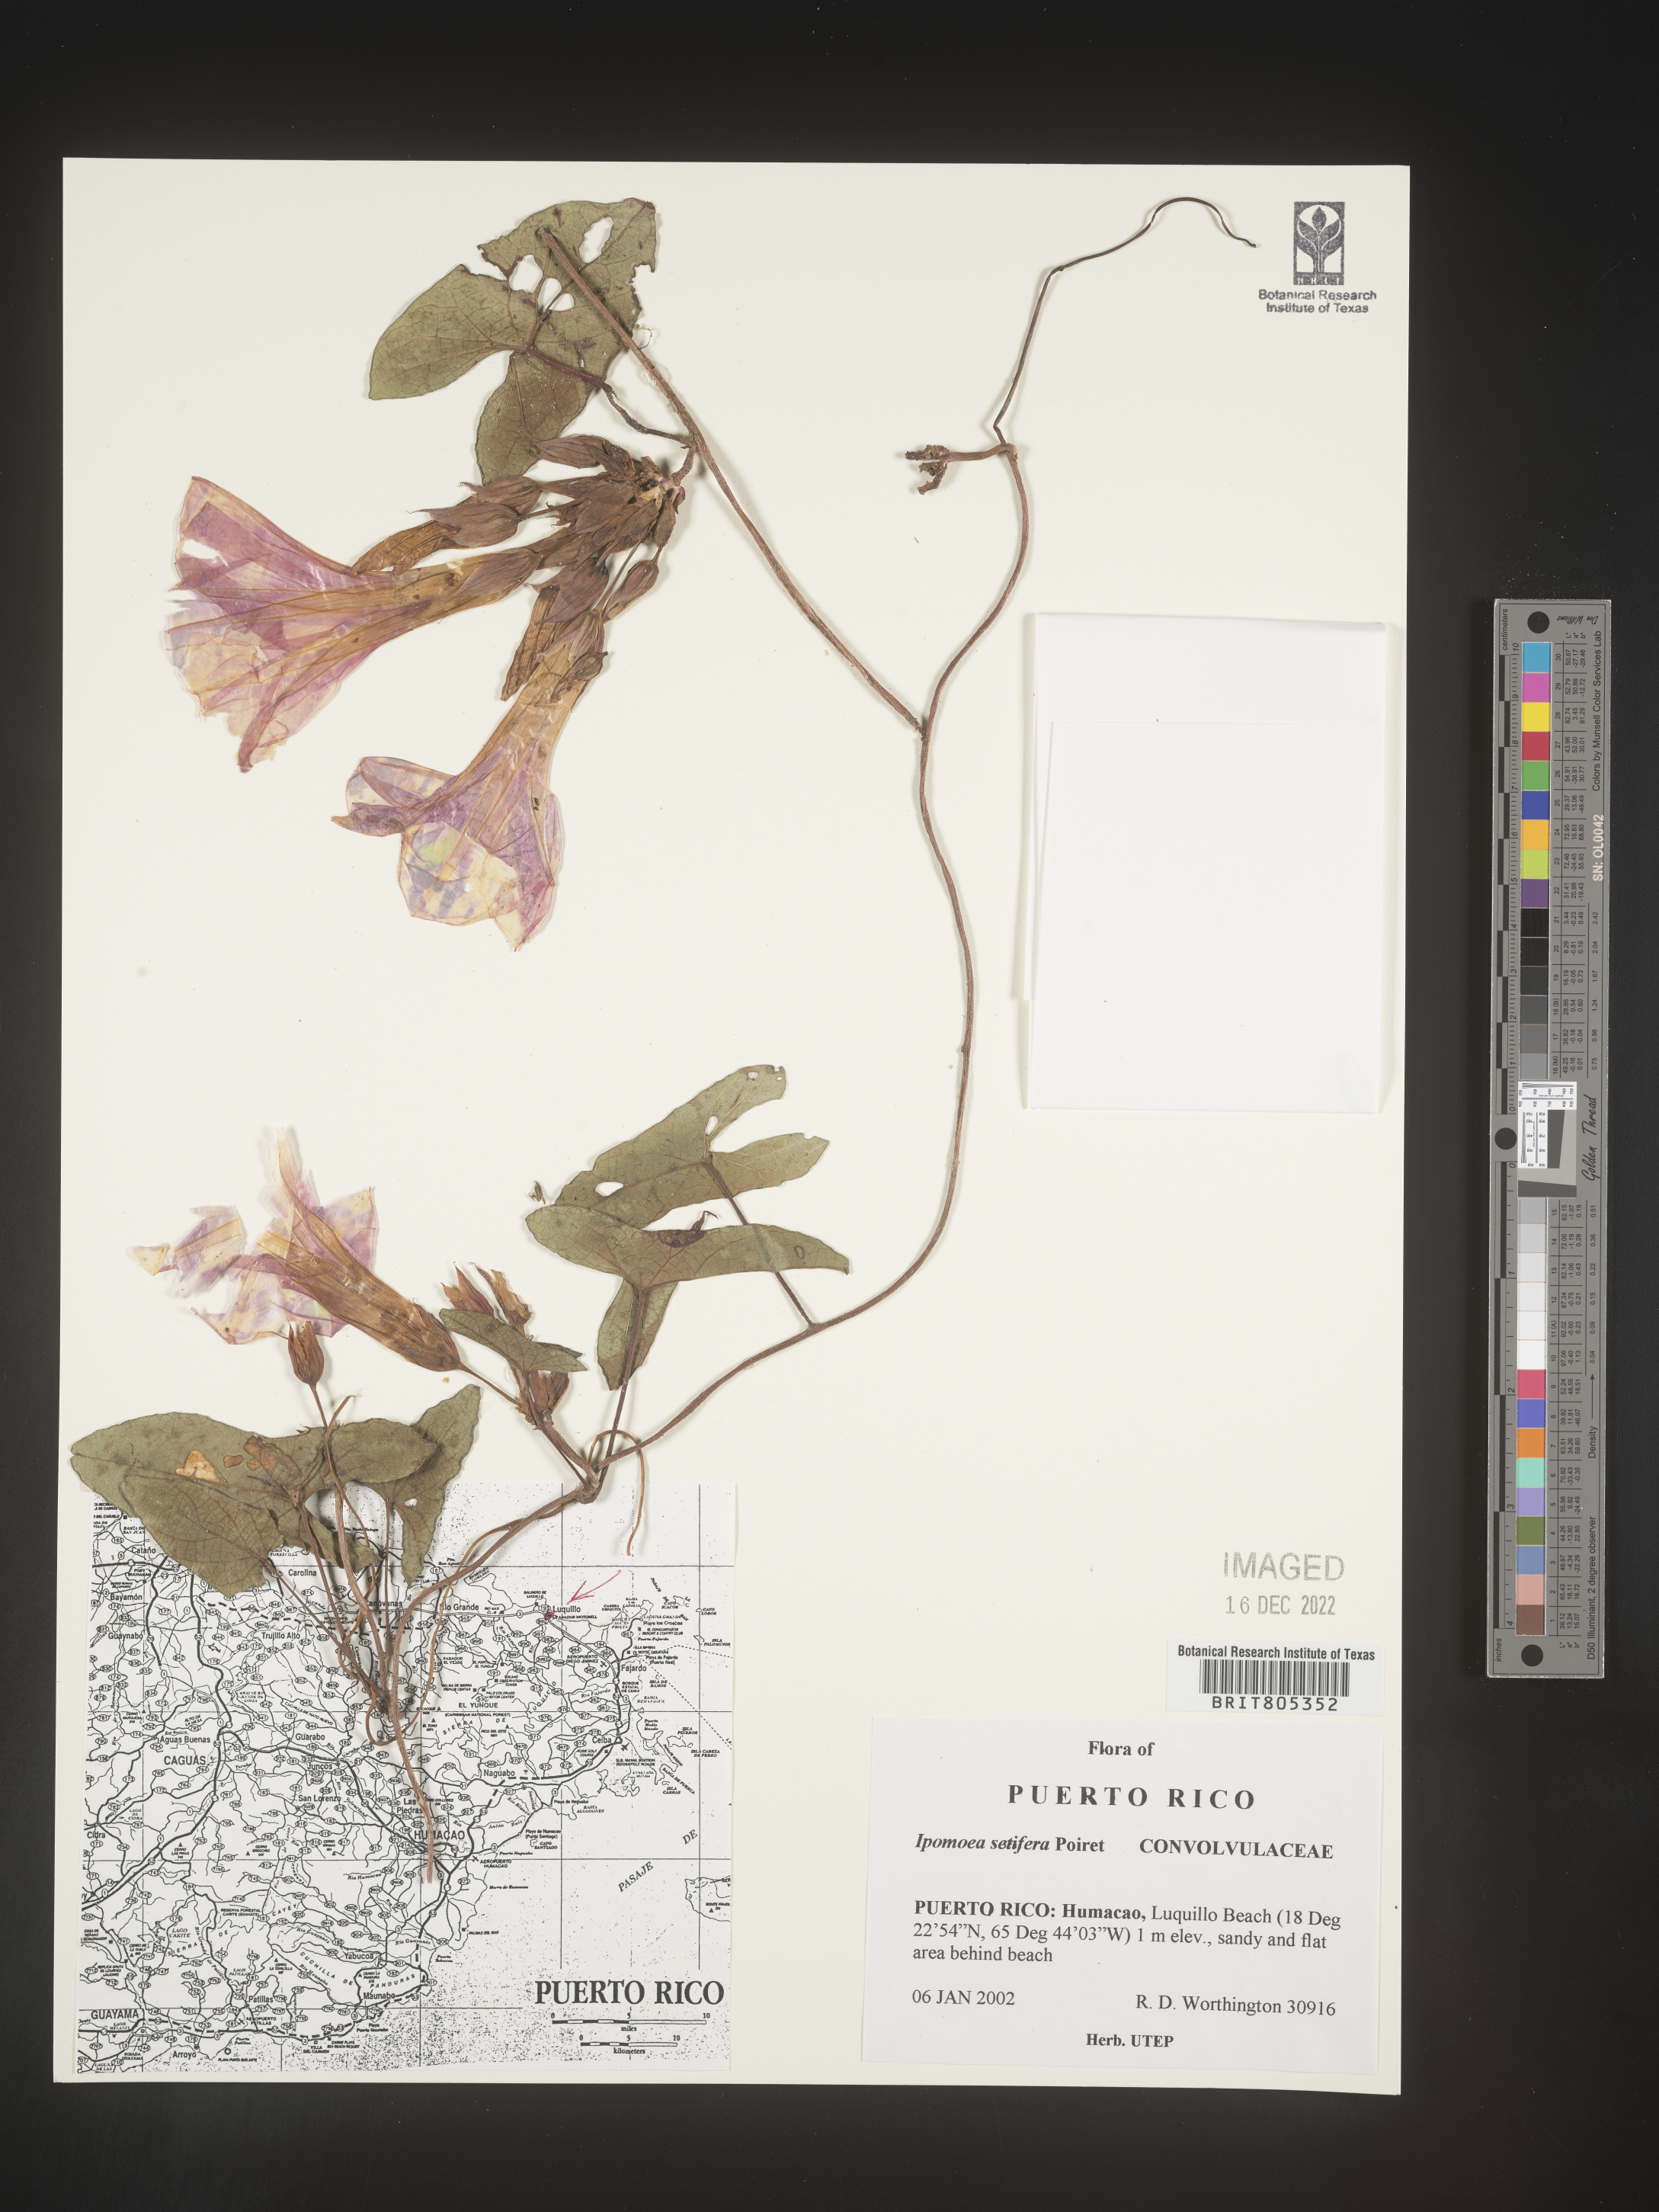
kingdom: Plantae
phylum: Tracheophyta
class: Magnoliopsida
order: Solanales
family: Convolvulaceae
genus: Ipomoea
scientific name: Ipomoea
